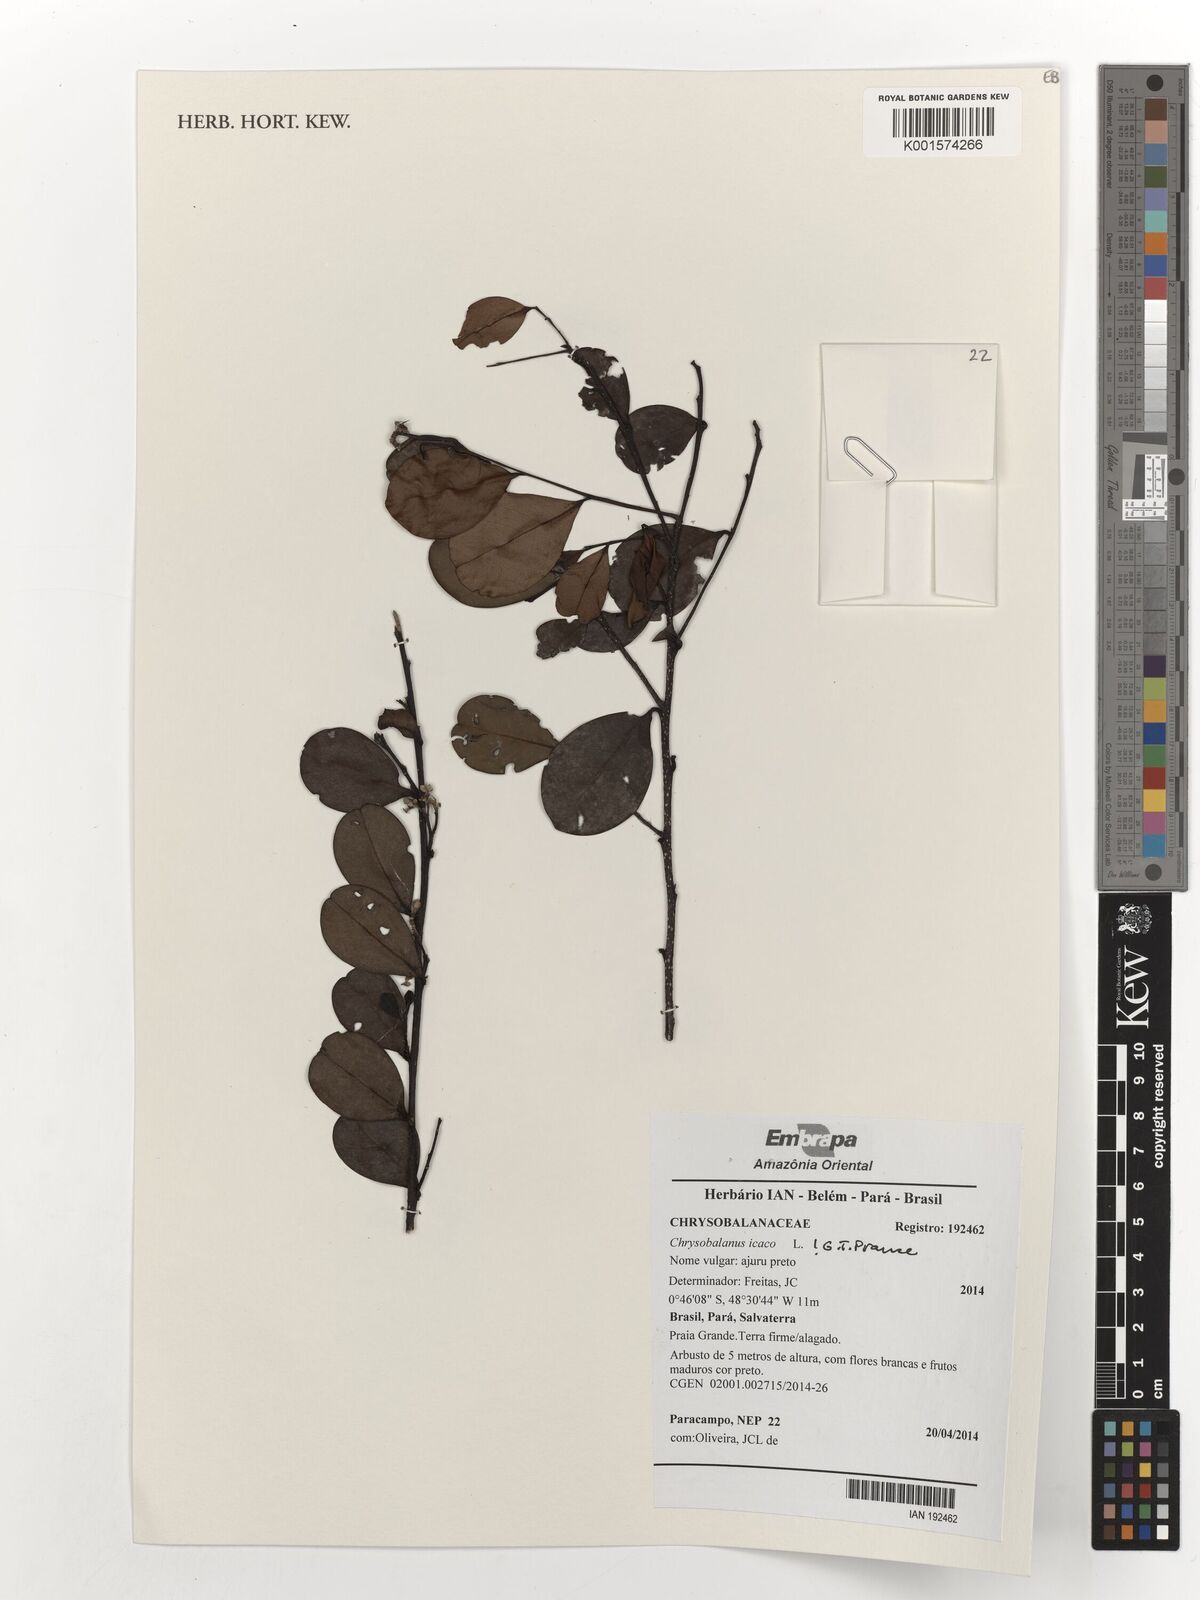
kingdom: Plantae
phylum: Tracheophyta
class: Magnoliopsida
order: Malpighiales
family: Chrysobalanaceae
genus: Chrysobalanus
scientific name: Chrysobalanus icaco
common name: Coco plum
